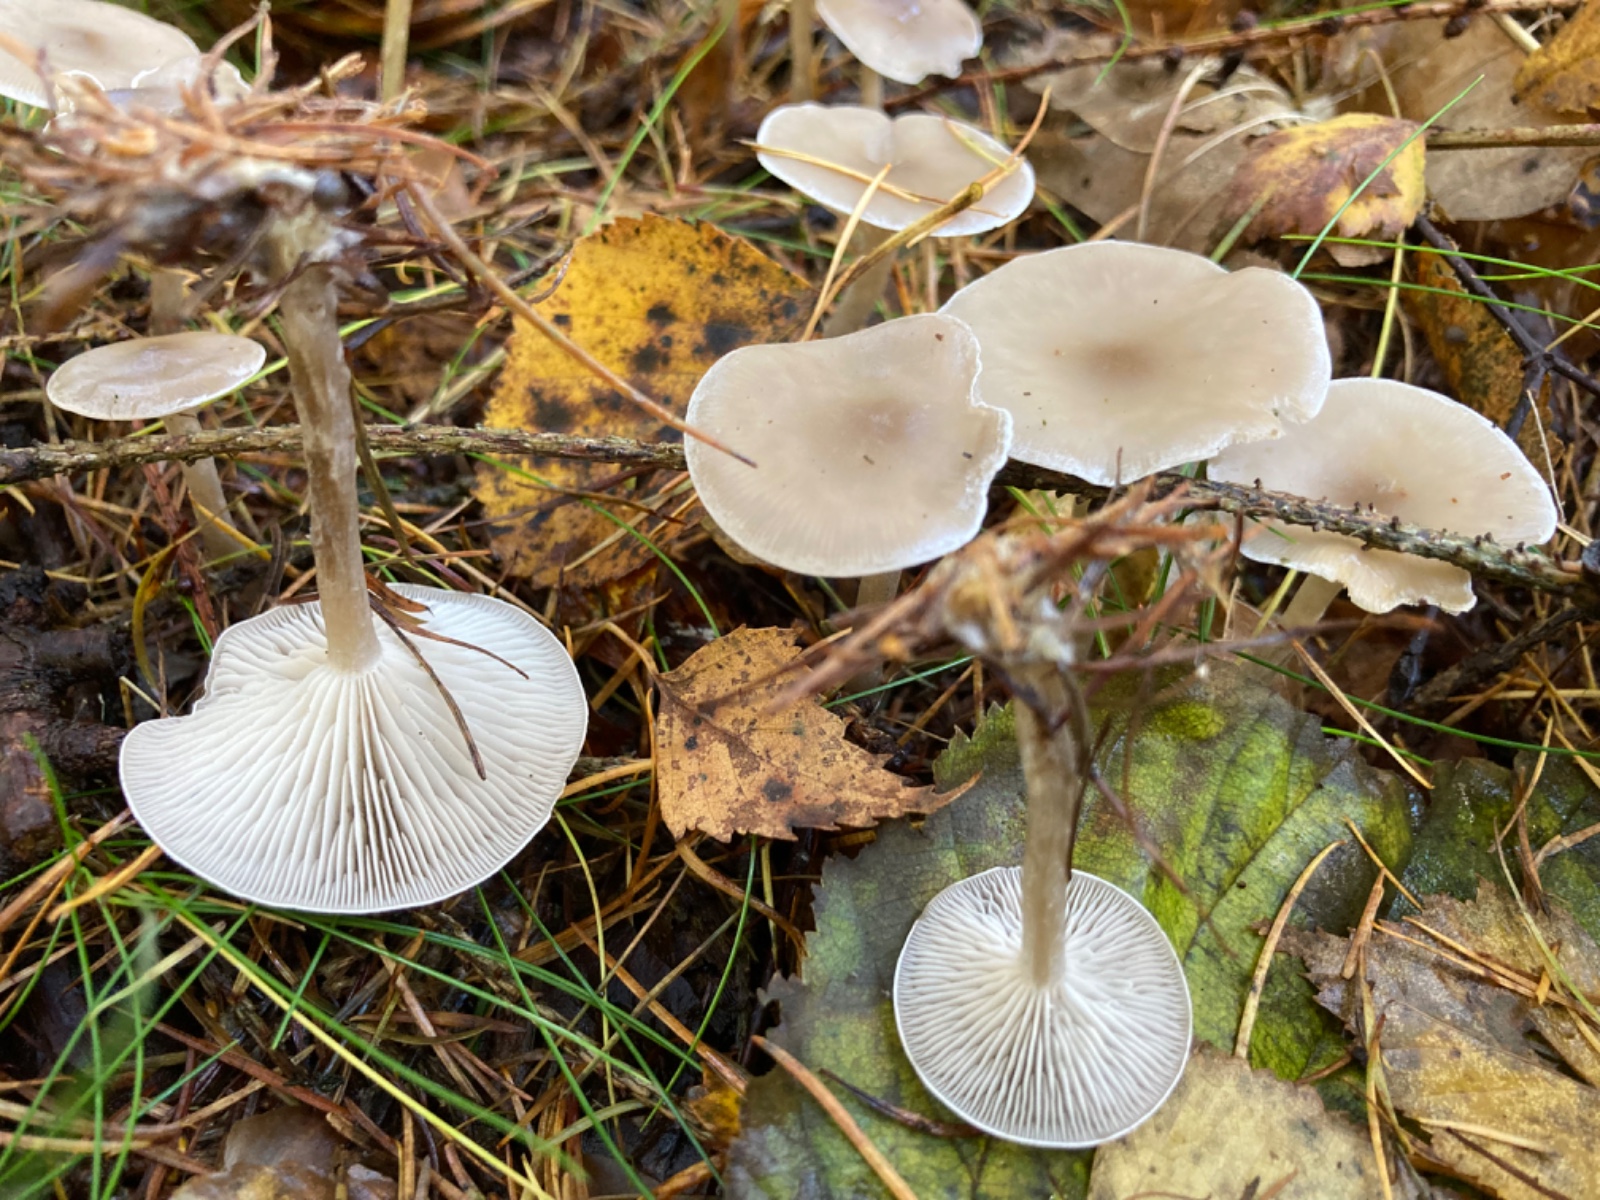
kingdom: Fungi
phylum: Basidiomycota
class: Agaricomycetes
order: Agaricales
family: Tricholomataceae
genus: Clitocybe
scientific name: Clitocybe
